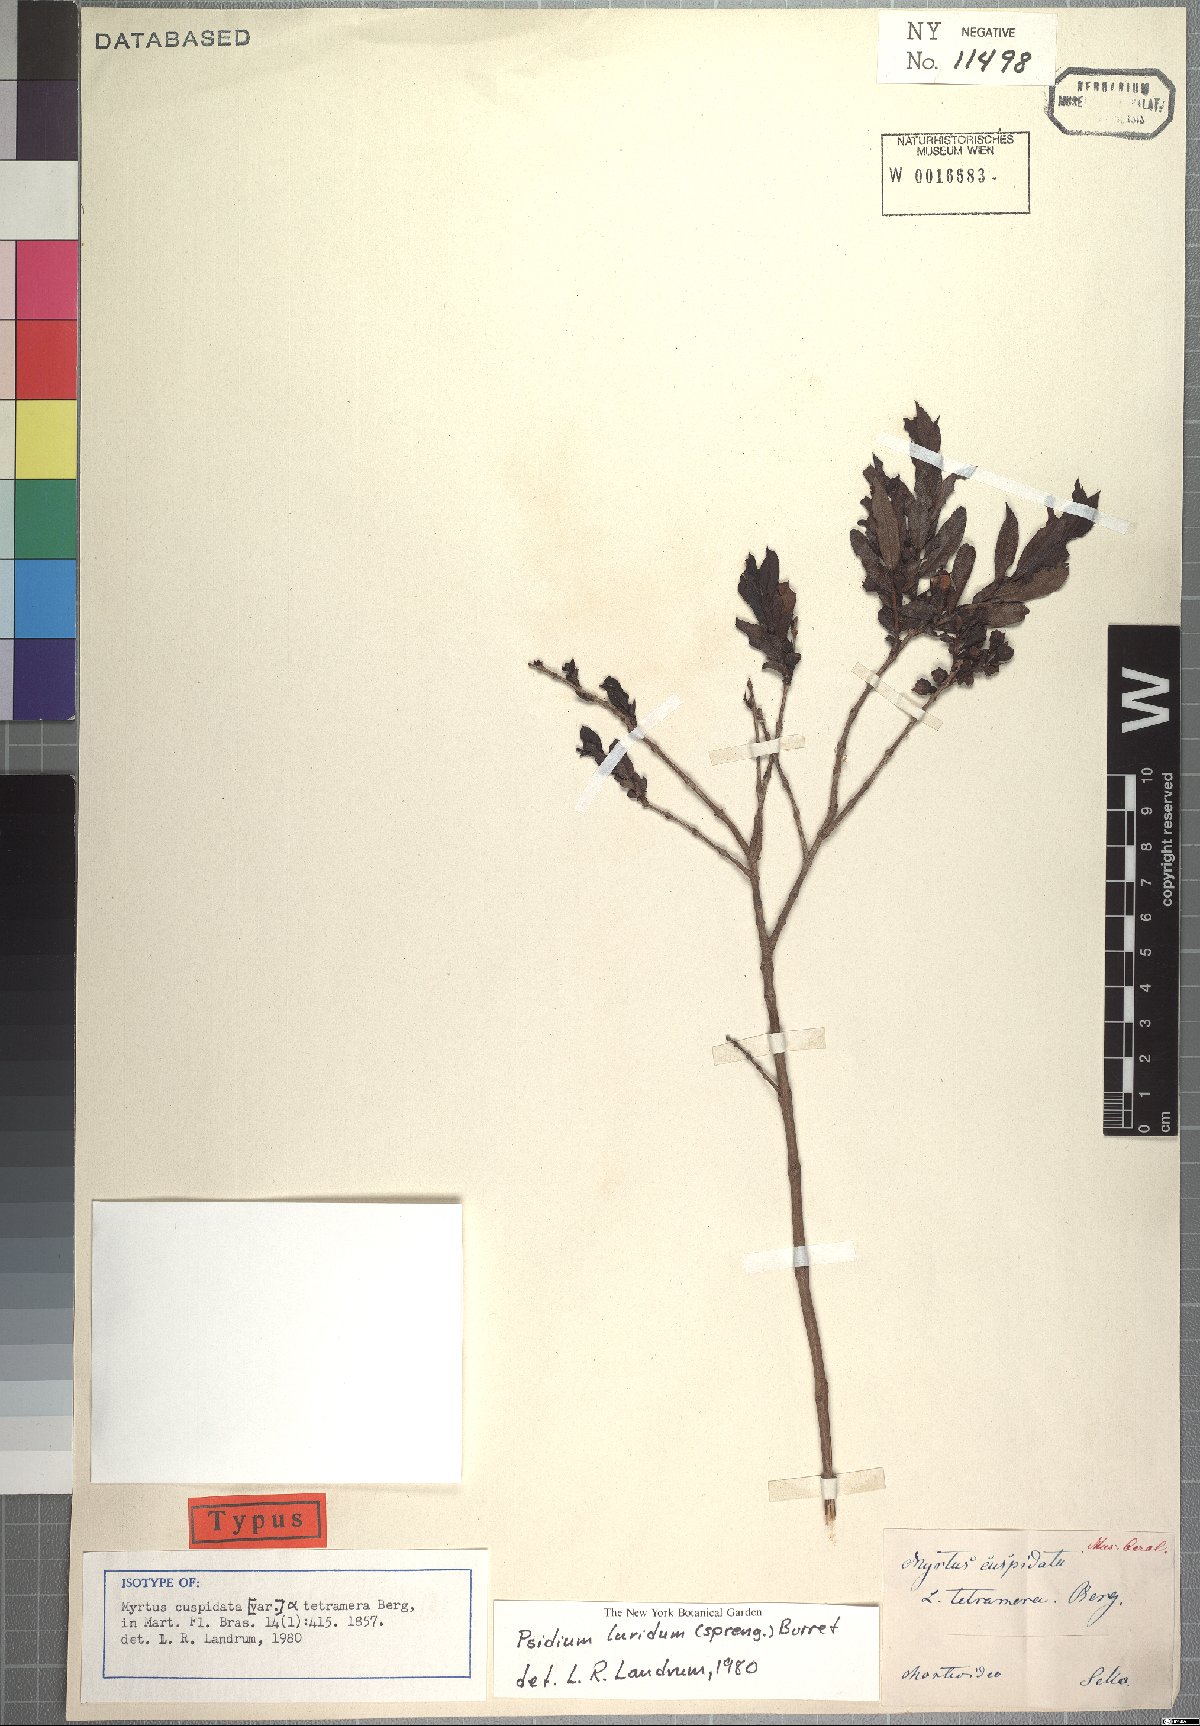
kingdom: Plantae
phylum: Tracheophyta
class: Magnoliopsida
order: Myrtales
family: Myrtaceae
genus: Psidium
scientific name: Psidium salutare
